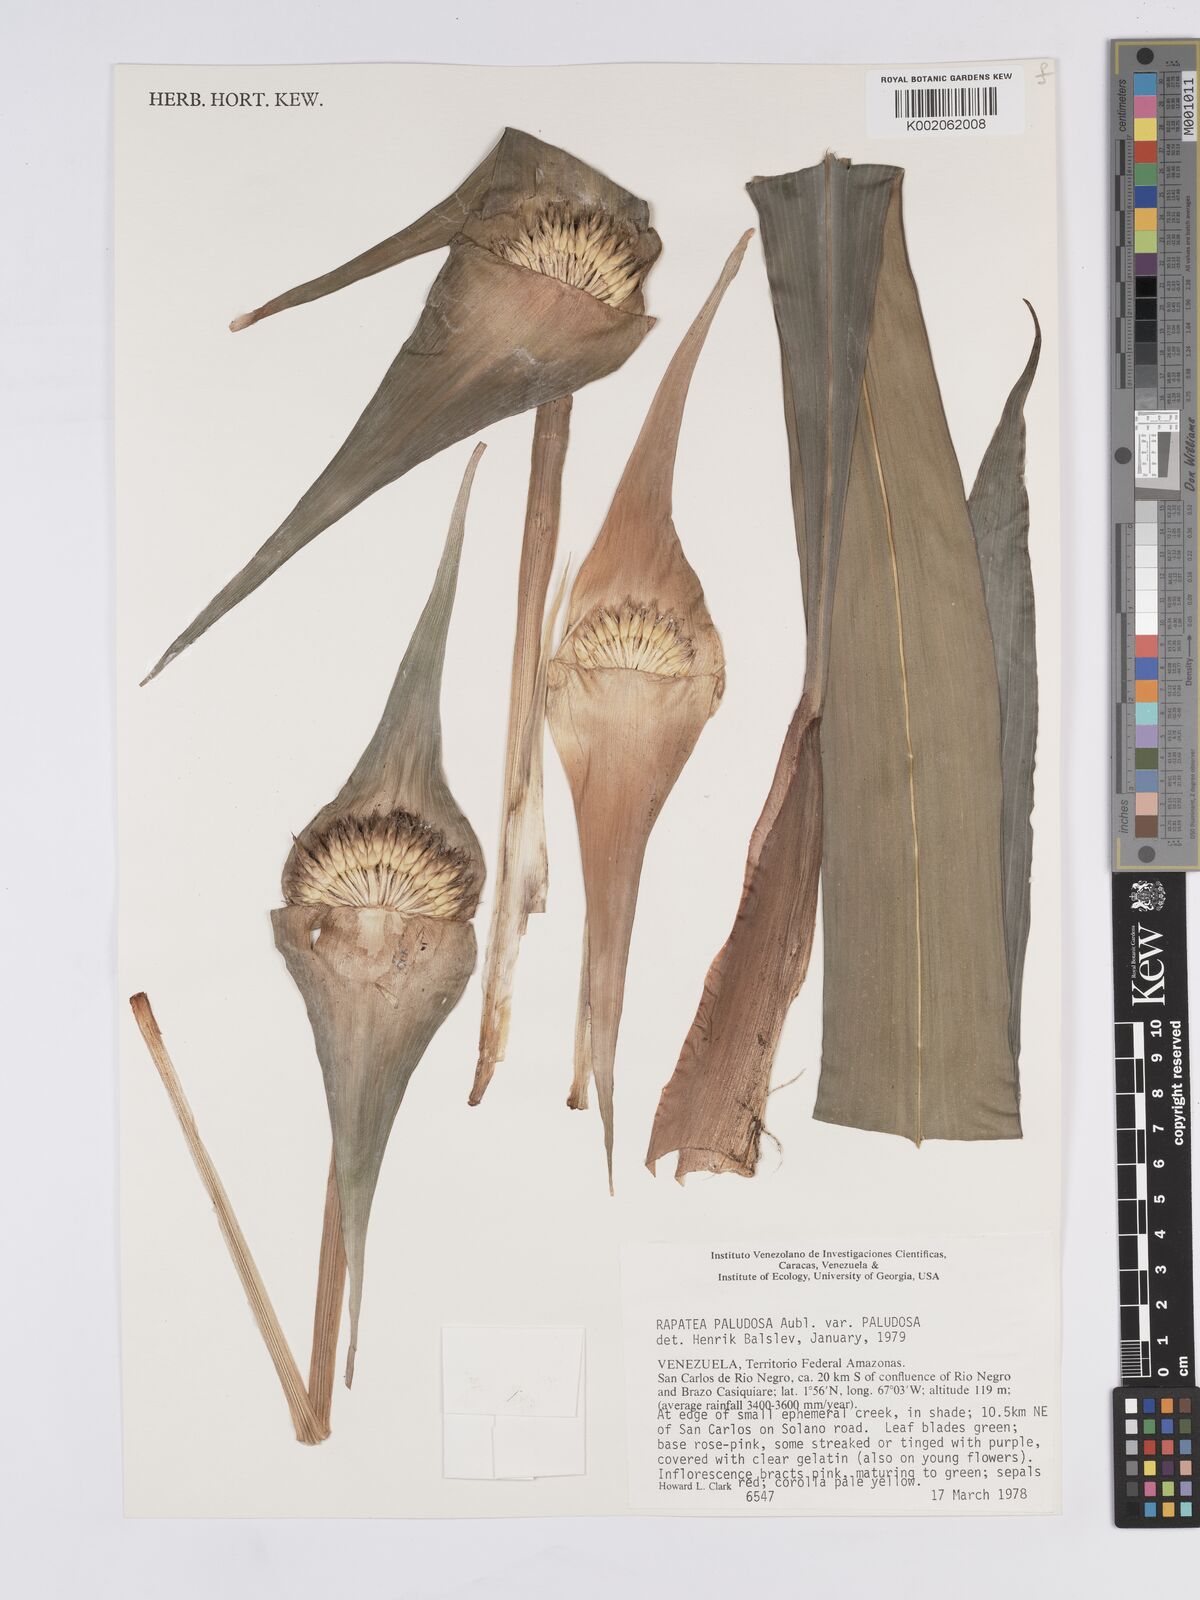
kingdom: Plantae
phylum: Tracheophyta
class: Liliopsida
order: Poales
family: Rapateaceae
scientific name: Rapateaceae
